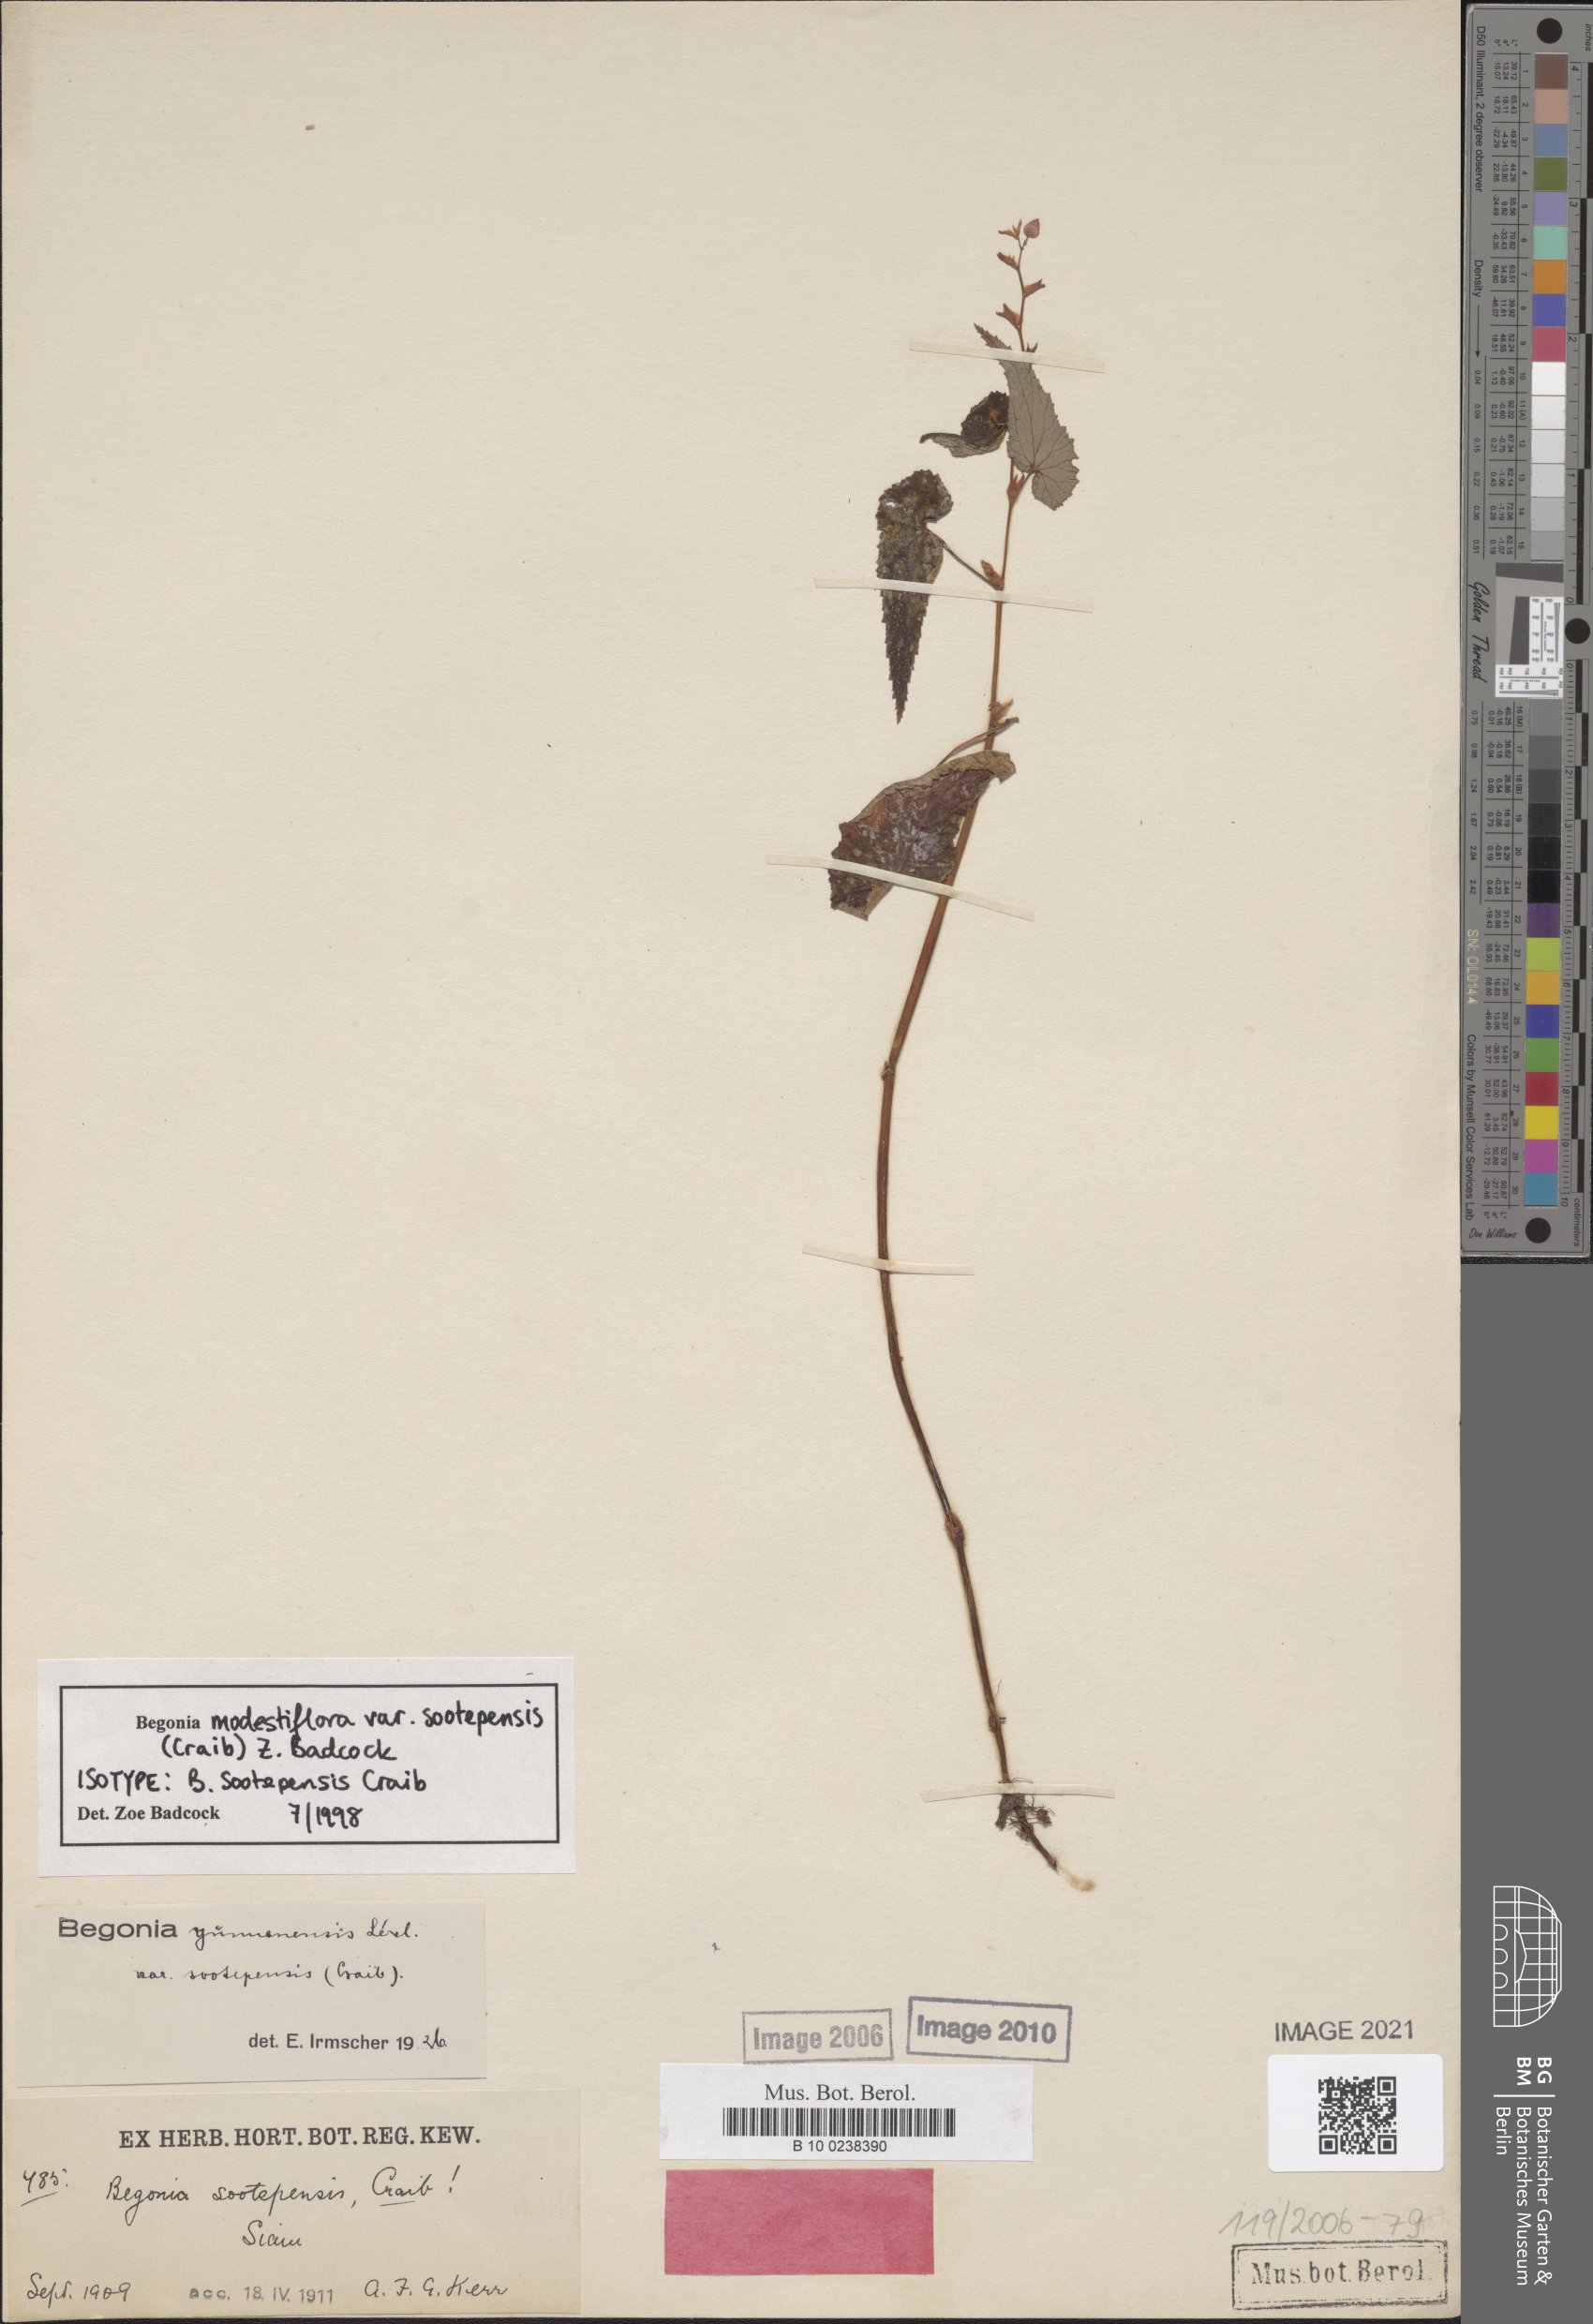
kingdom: Plantae
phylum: Tracheophyta
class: Magnoliopsida
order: Cucurbitales
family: Begoniaceae
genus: Begonia
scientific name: Begonia modestiflora
